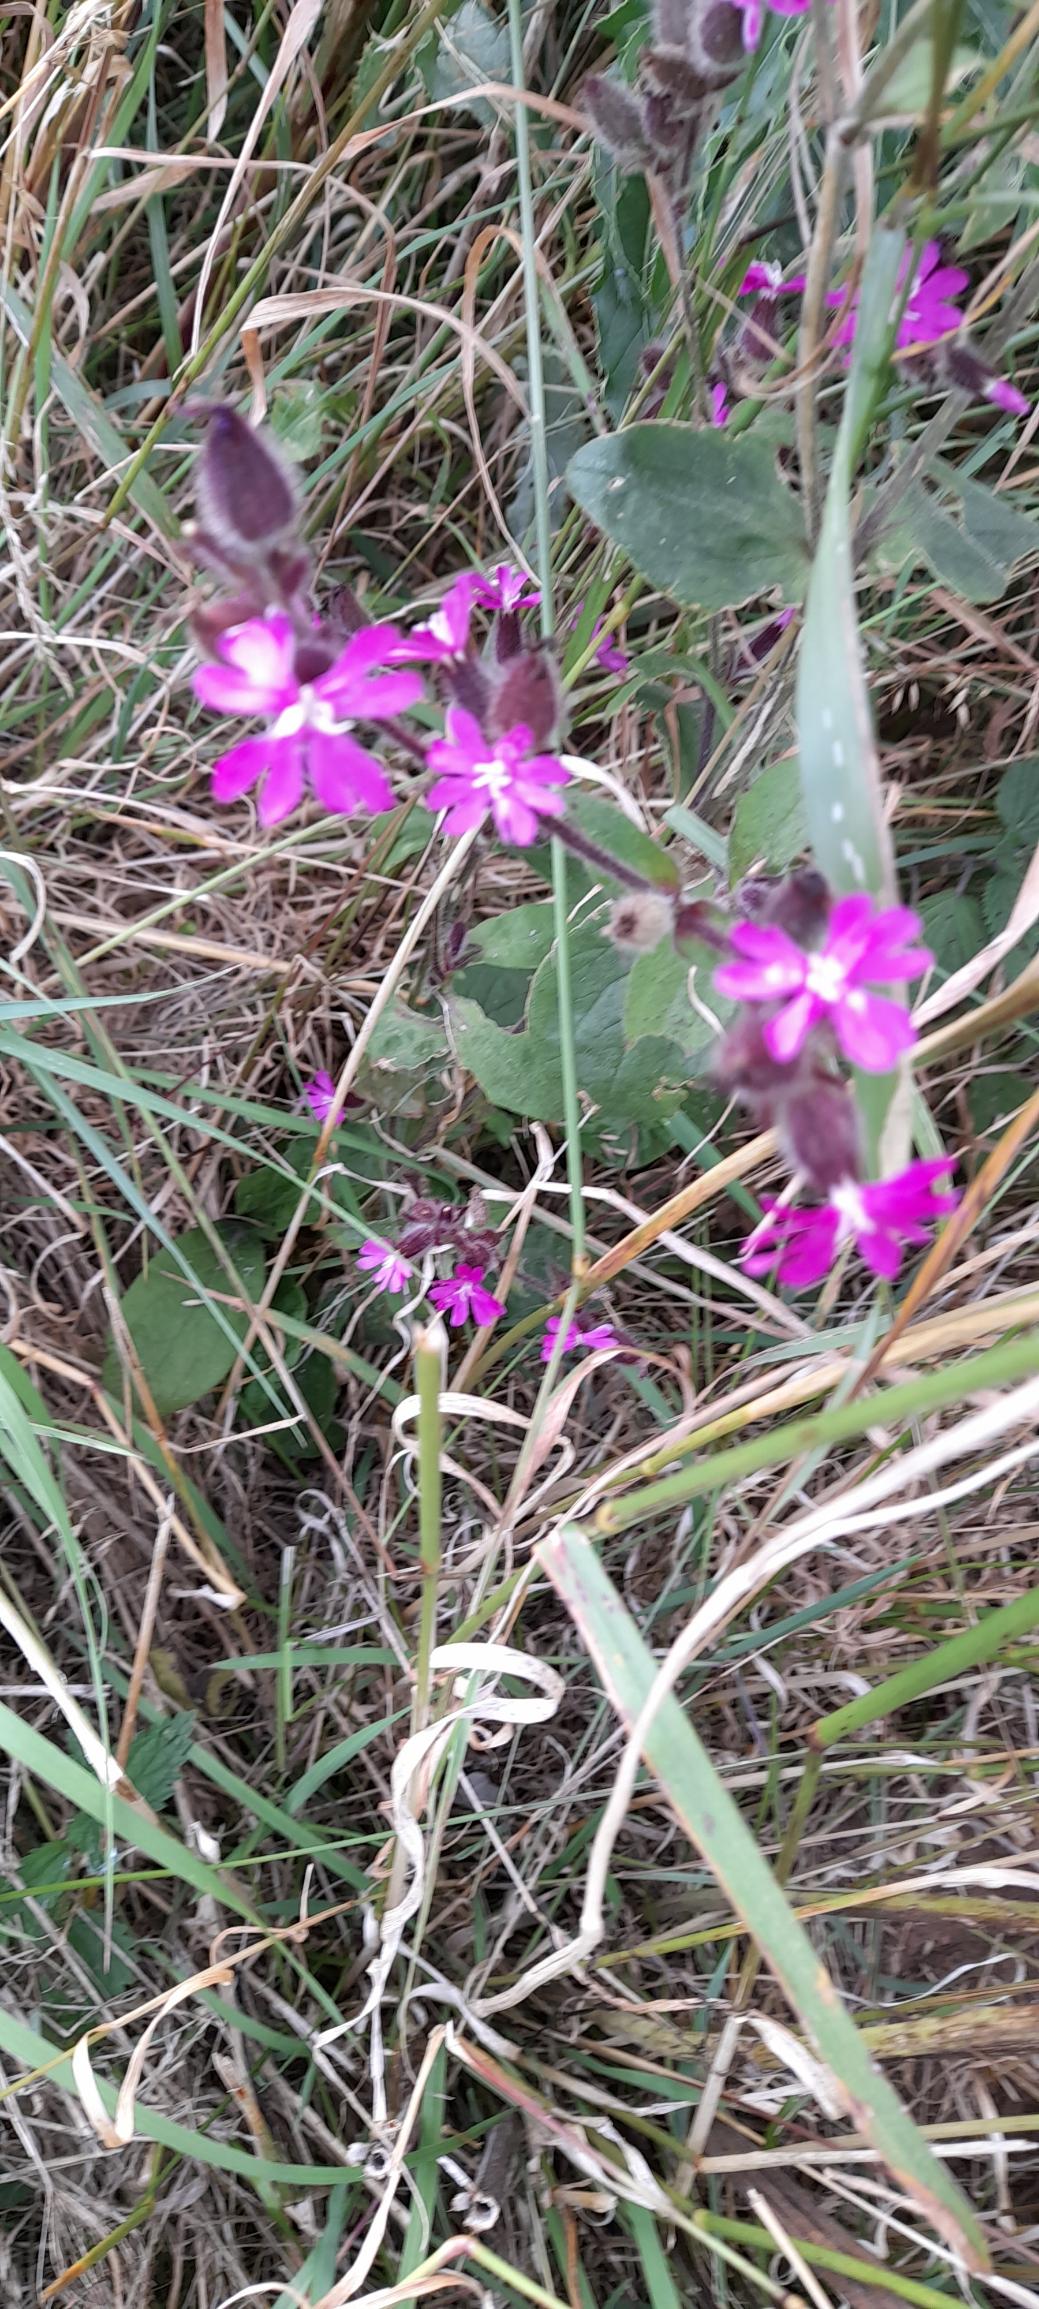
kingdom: Plantae
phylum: Tracheophyta
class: Magnoliopsida
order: Caryophyllales
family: Caryophyllaceae
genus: Silene
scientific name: Silene dioica
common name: Dagpragtstjerne
